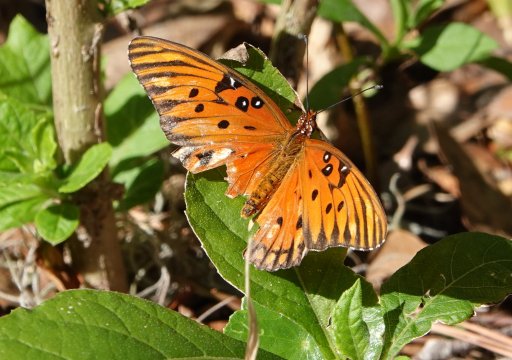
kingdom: Animalia
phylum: Arthropoda
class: Insecta
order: Lepidoptera
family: Nymphalidae
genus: Dione
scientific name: Dione vanillae
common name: Gulf Fritillary
